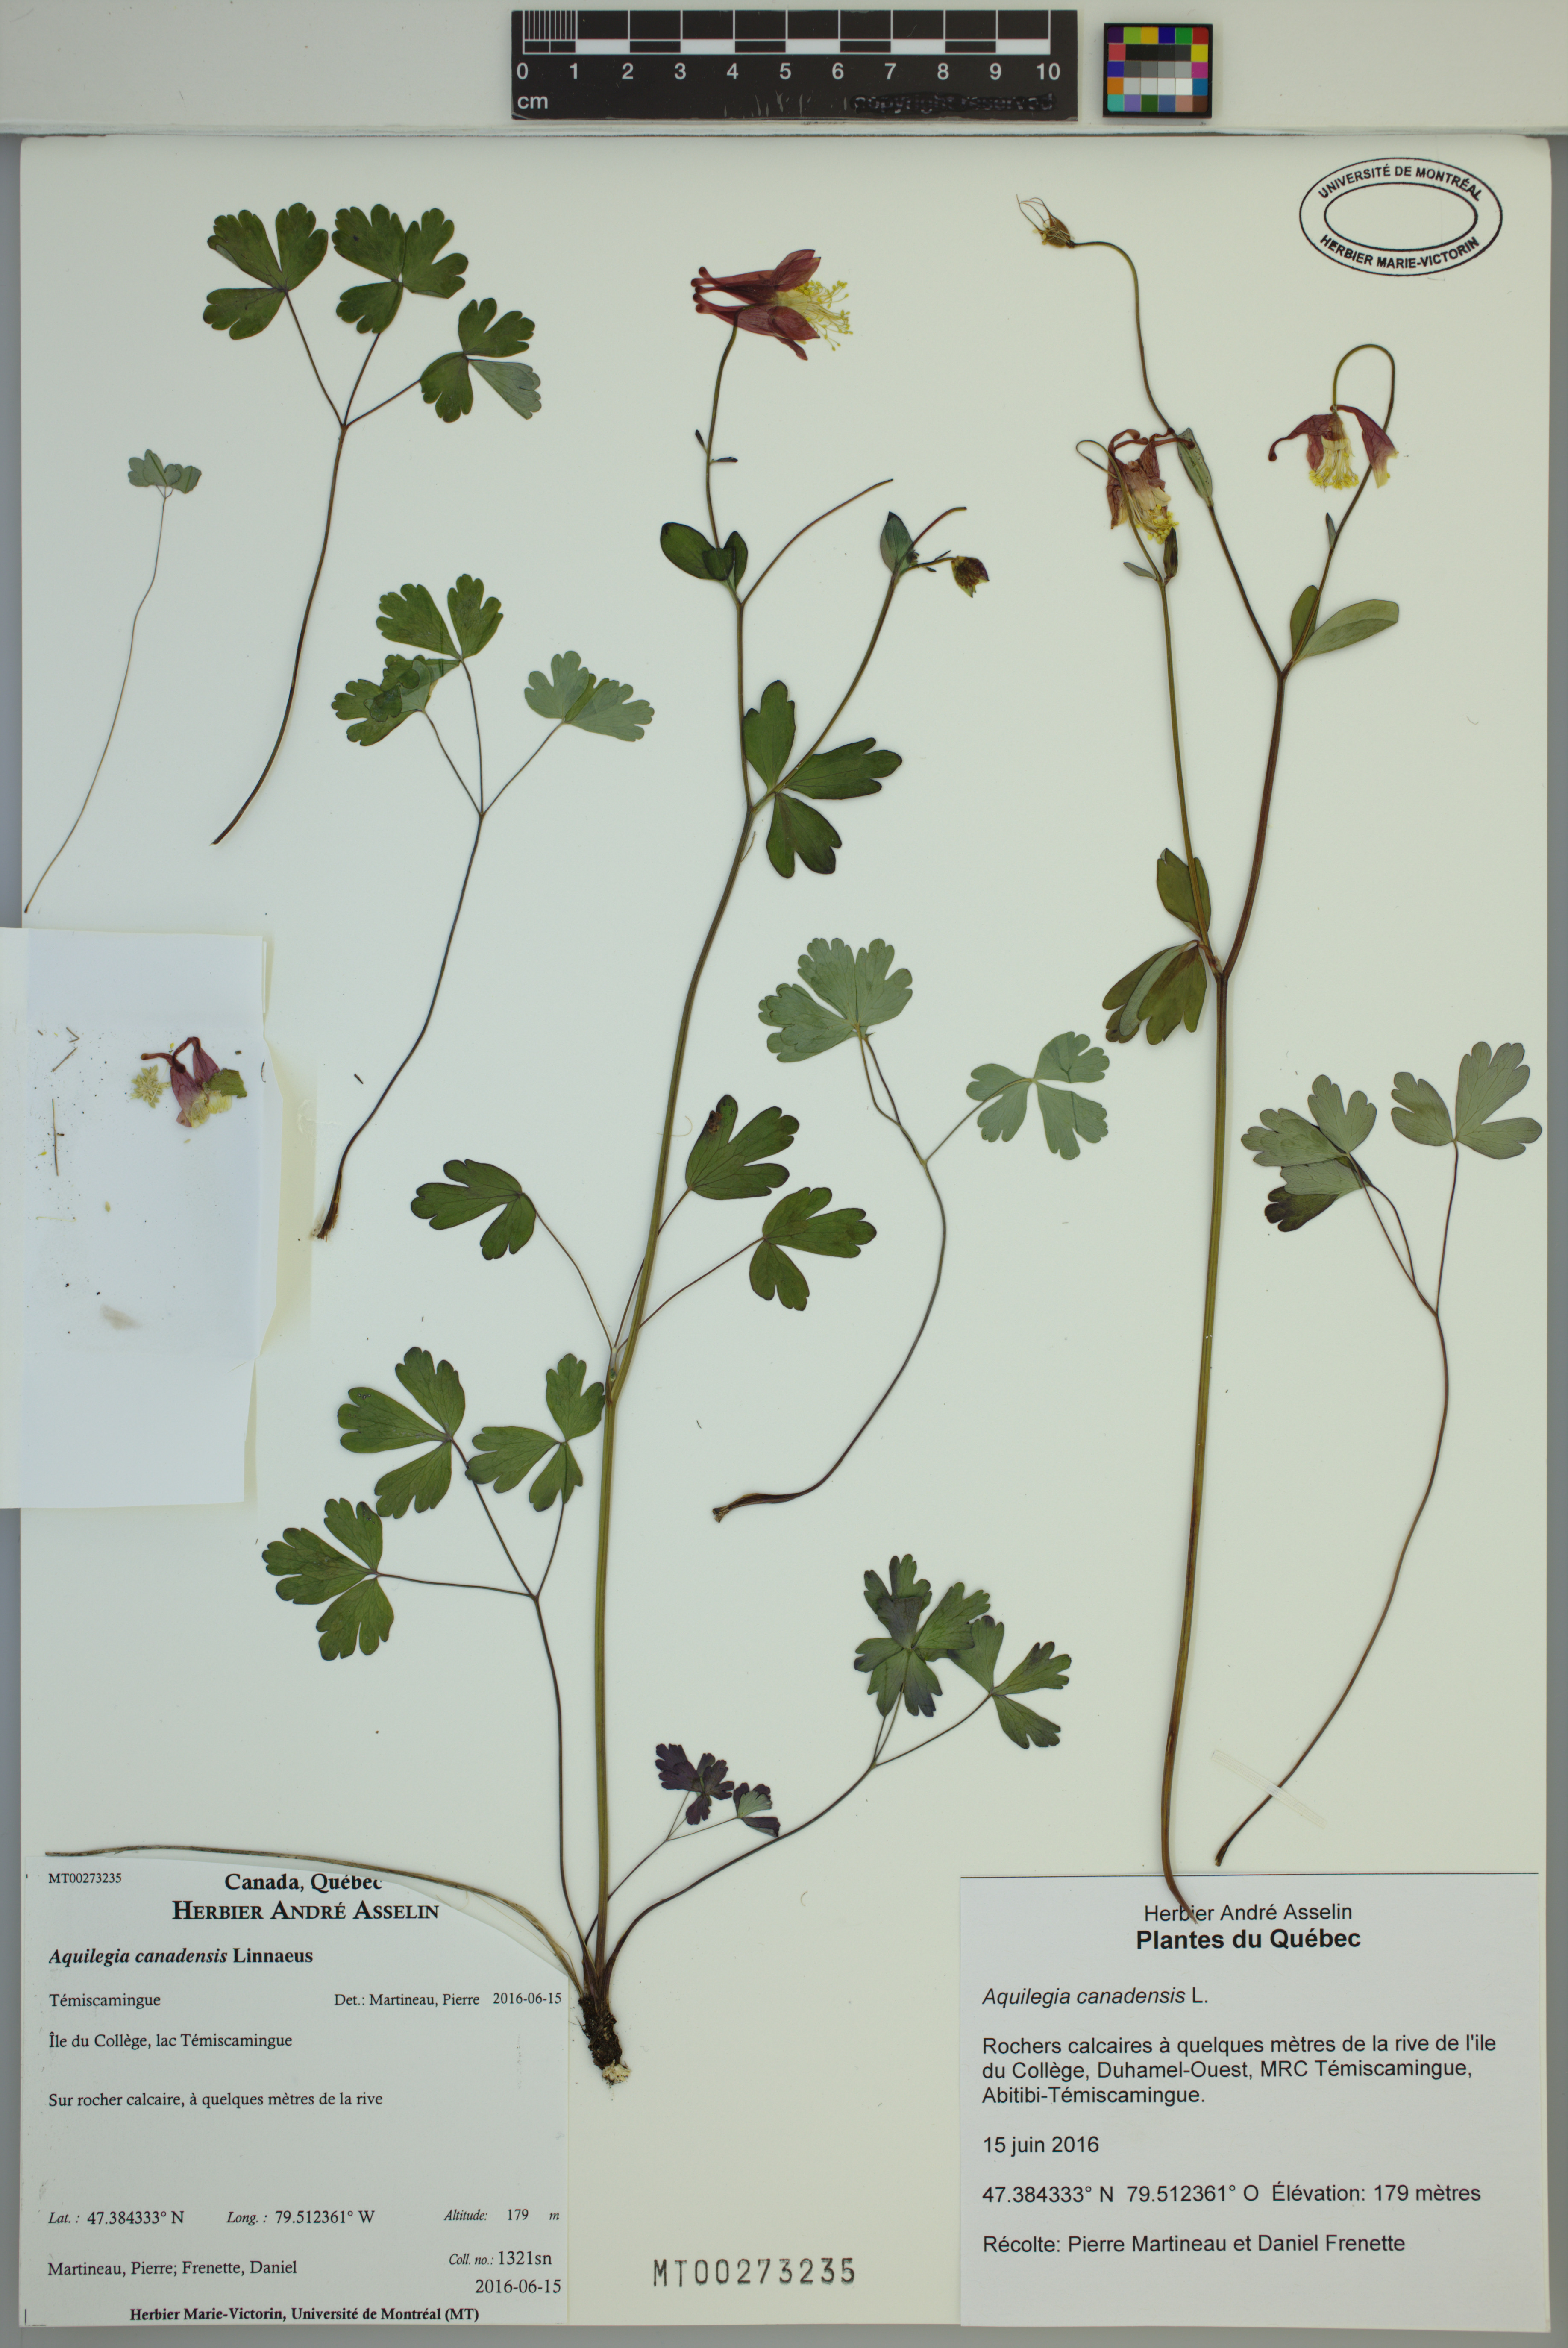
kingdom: Plantae
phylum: Tracheophyta
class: Magnoliopsida
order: Ranunculales
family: Ranunculaceae
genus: Aquilegia
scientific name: Aquilegia canadensis
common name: American columbine
